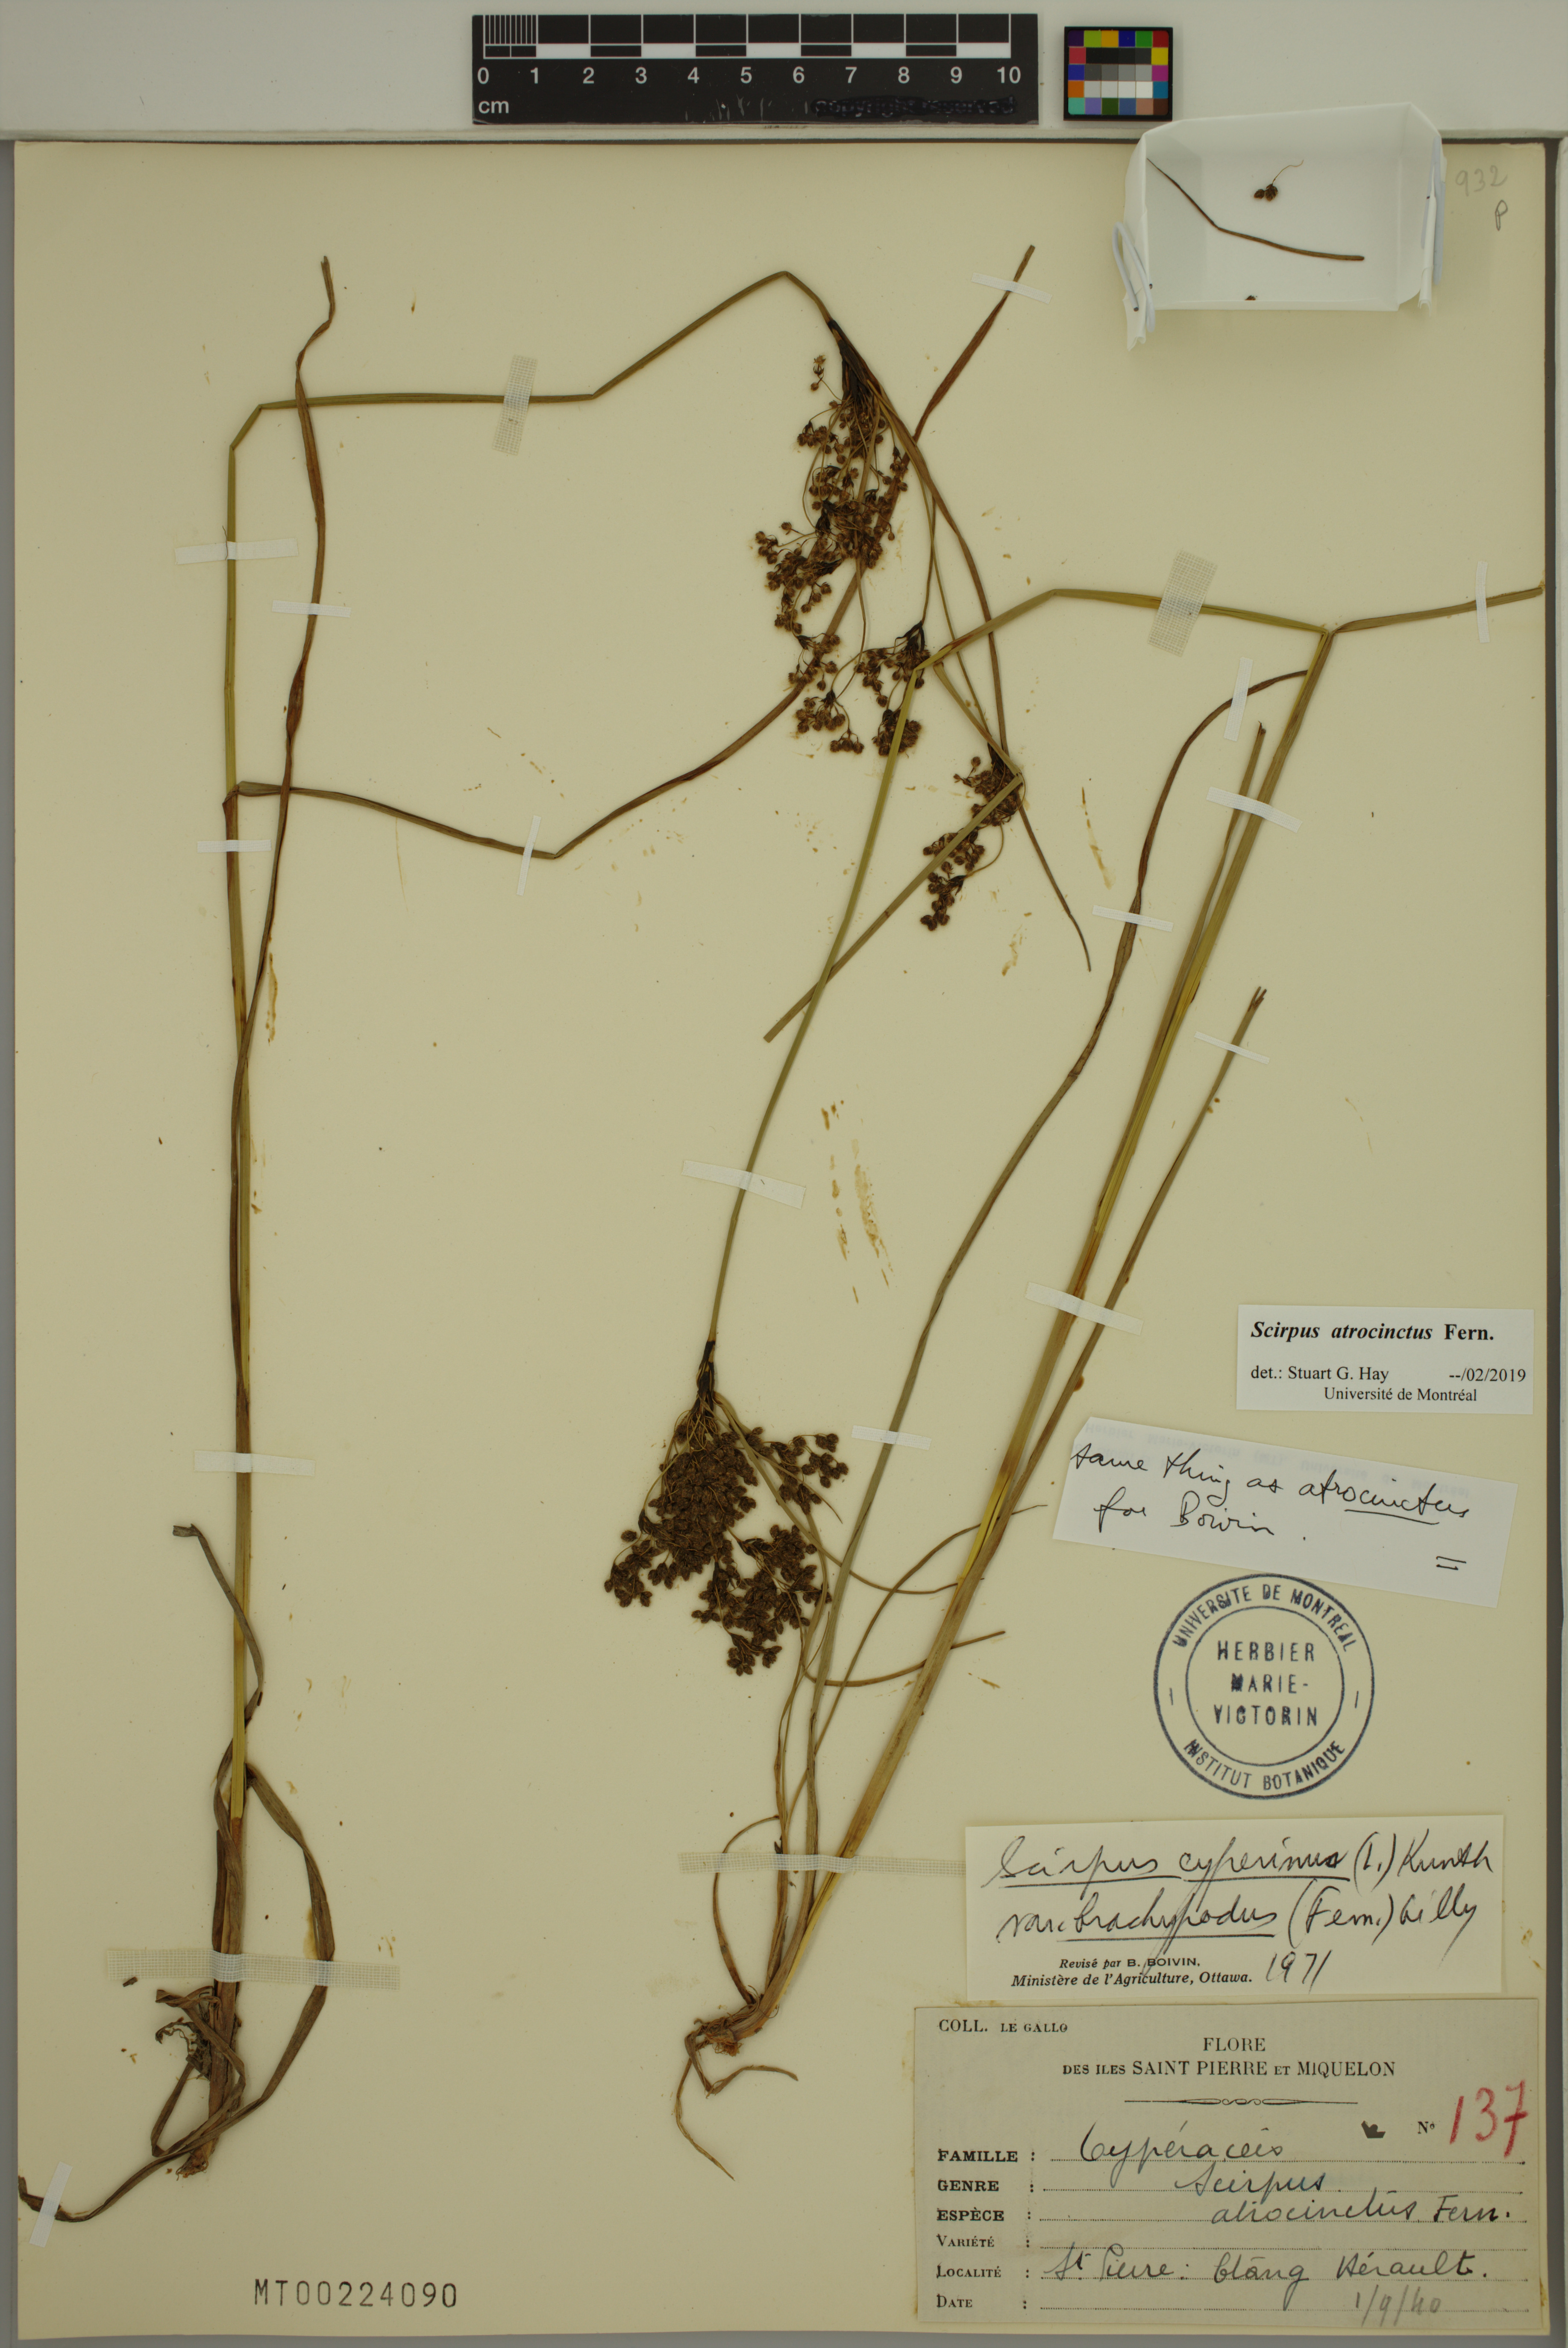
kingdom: Plantae
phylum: Tracheophyta
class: Liliopsida
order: Poales
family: Cyperaceae
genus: Scirpus
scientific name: Scirpus atrocinctus
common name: Black-girdled bulrush
